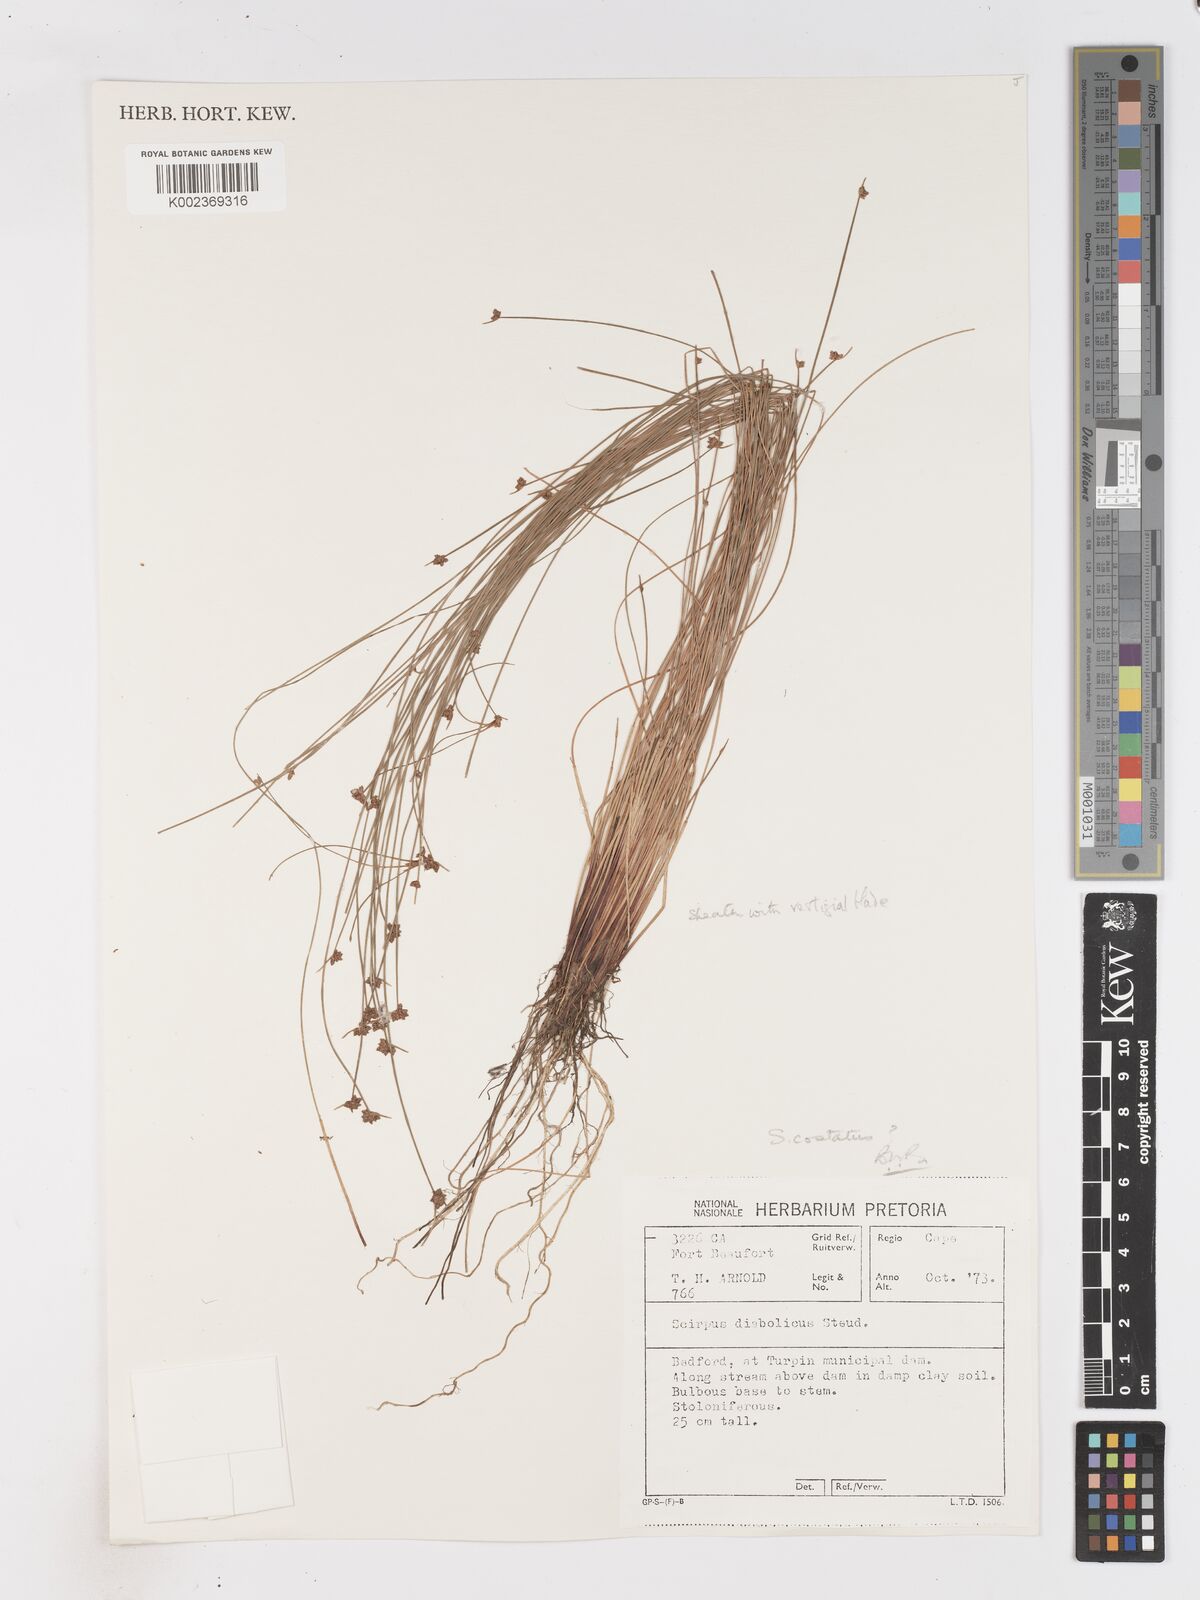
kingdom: Plantae
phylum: Tracheophyta
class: Liliopsida
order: Poales
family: Cyperaceae
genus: Isolepis
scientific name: Isolepis costata
